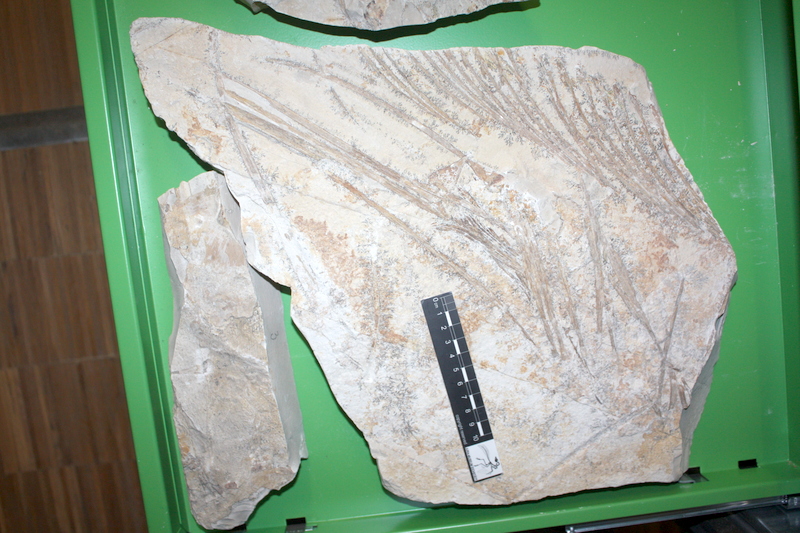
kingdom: Animalia
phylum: Chordata
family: Pachycormidae
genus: Asthenocormus
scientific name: Asthenocormus titanius
